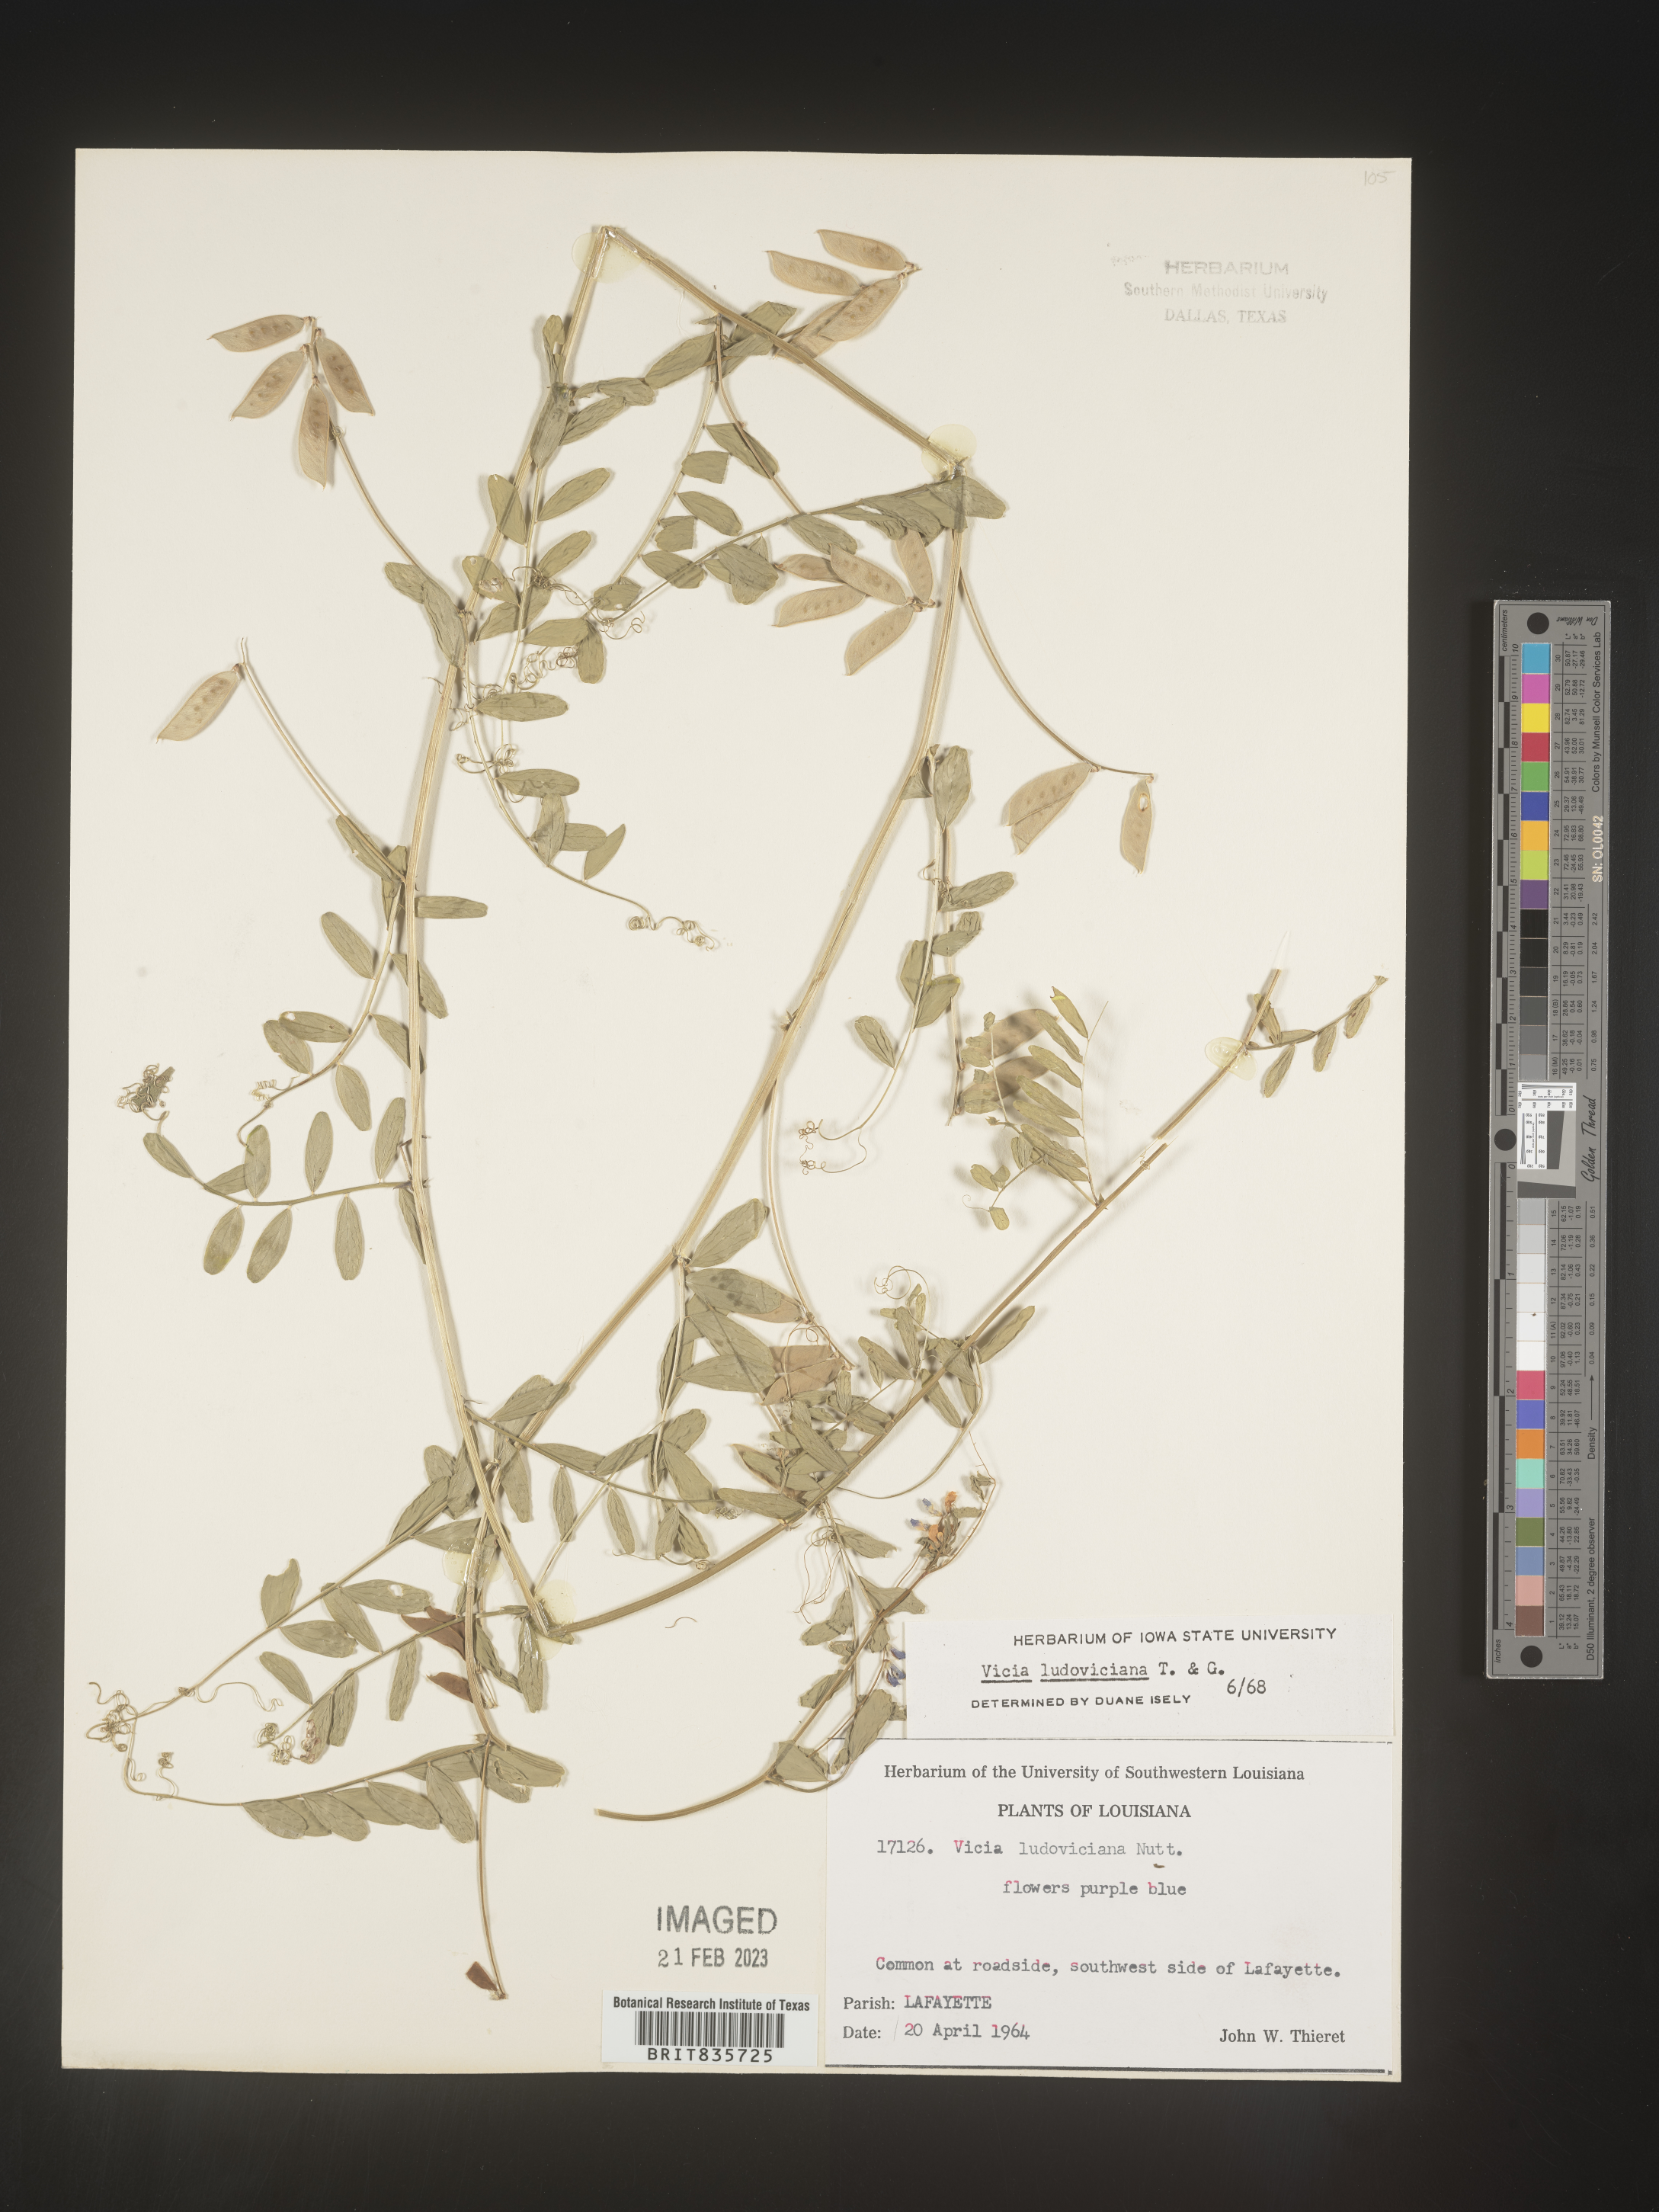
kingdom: Plantae
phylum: Tracheophyta
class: Magnoliopsida
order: Fabales
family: Fabaceae
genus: Vicia
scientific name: Vicia ludoviciana
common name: Louisiana vetch
